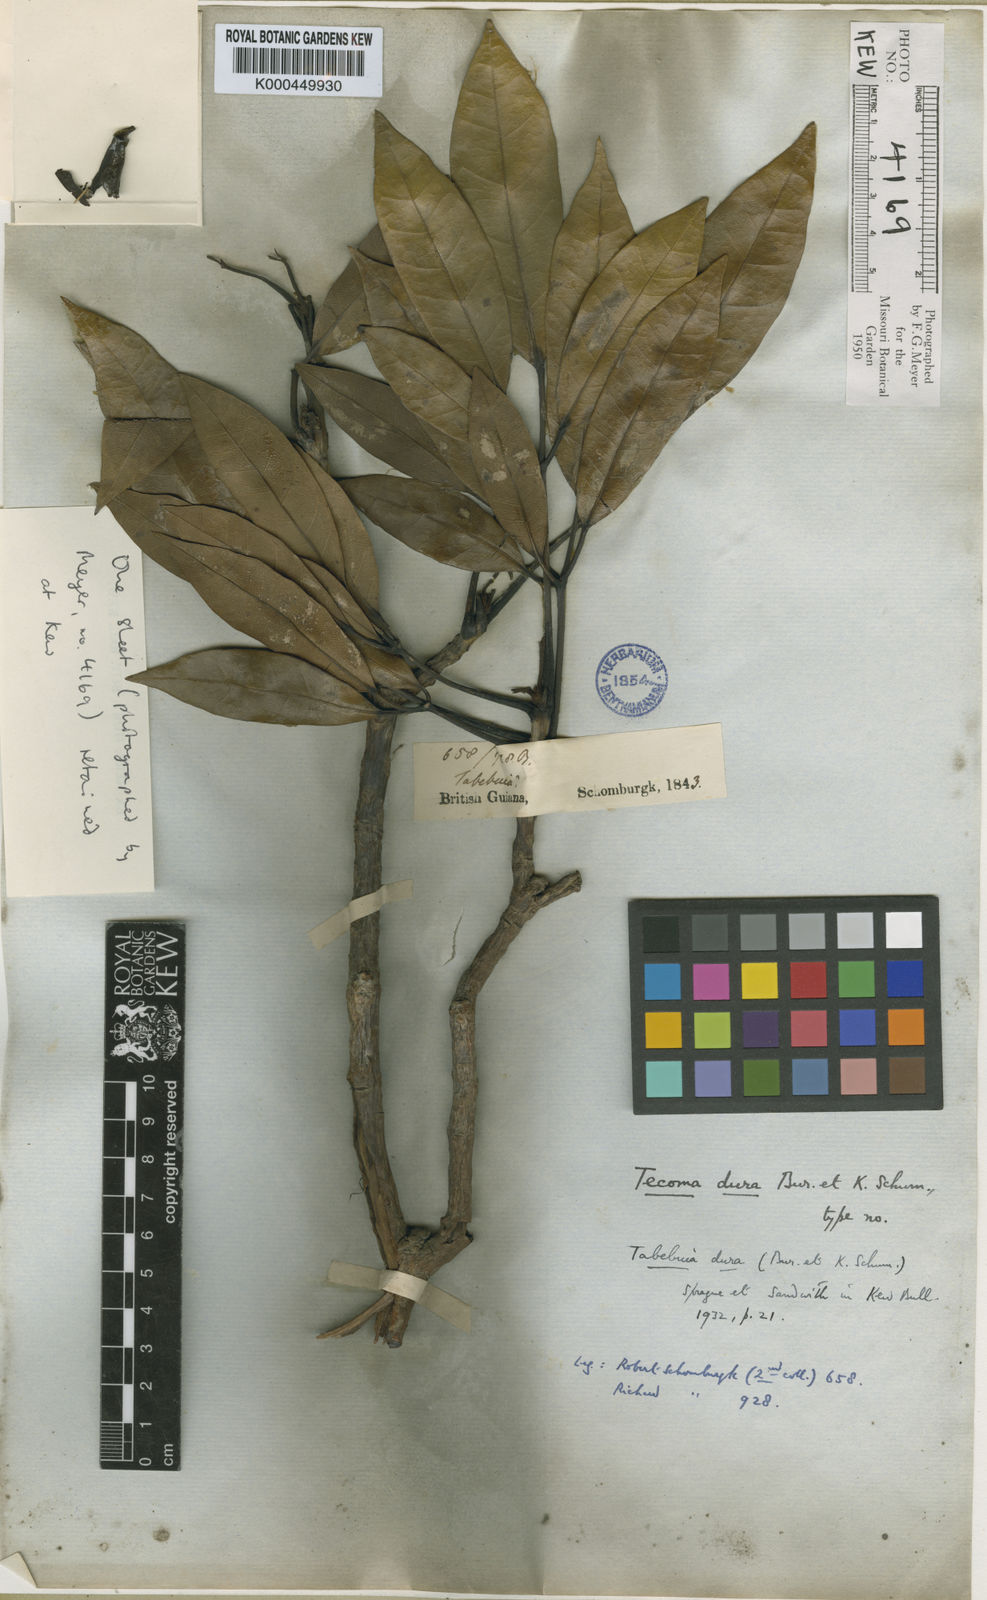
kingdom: Plantae
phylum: Tracheophyta
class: Magnoliopsida
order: Lamiales
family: Bignoniaceae
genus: Tabebuia
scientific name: Tabebuia insignis
